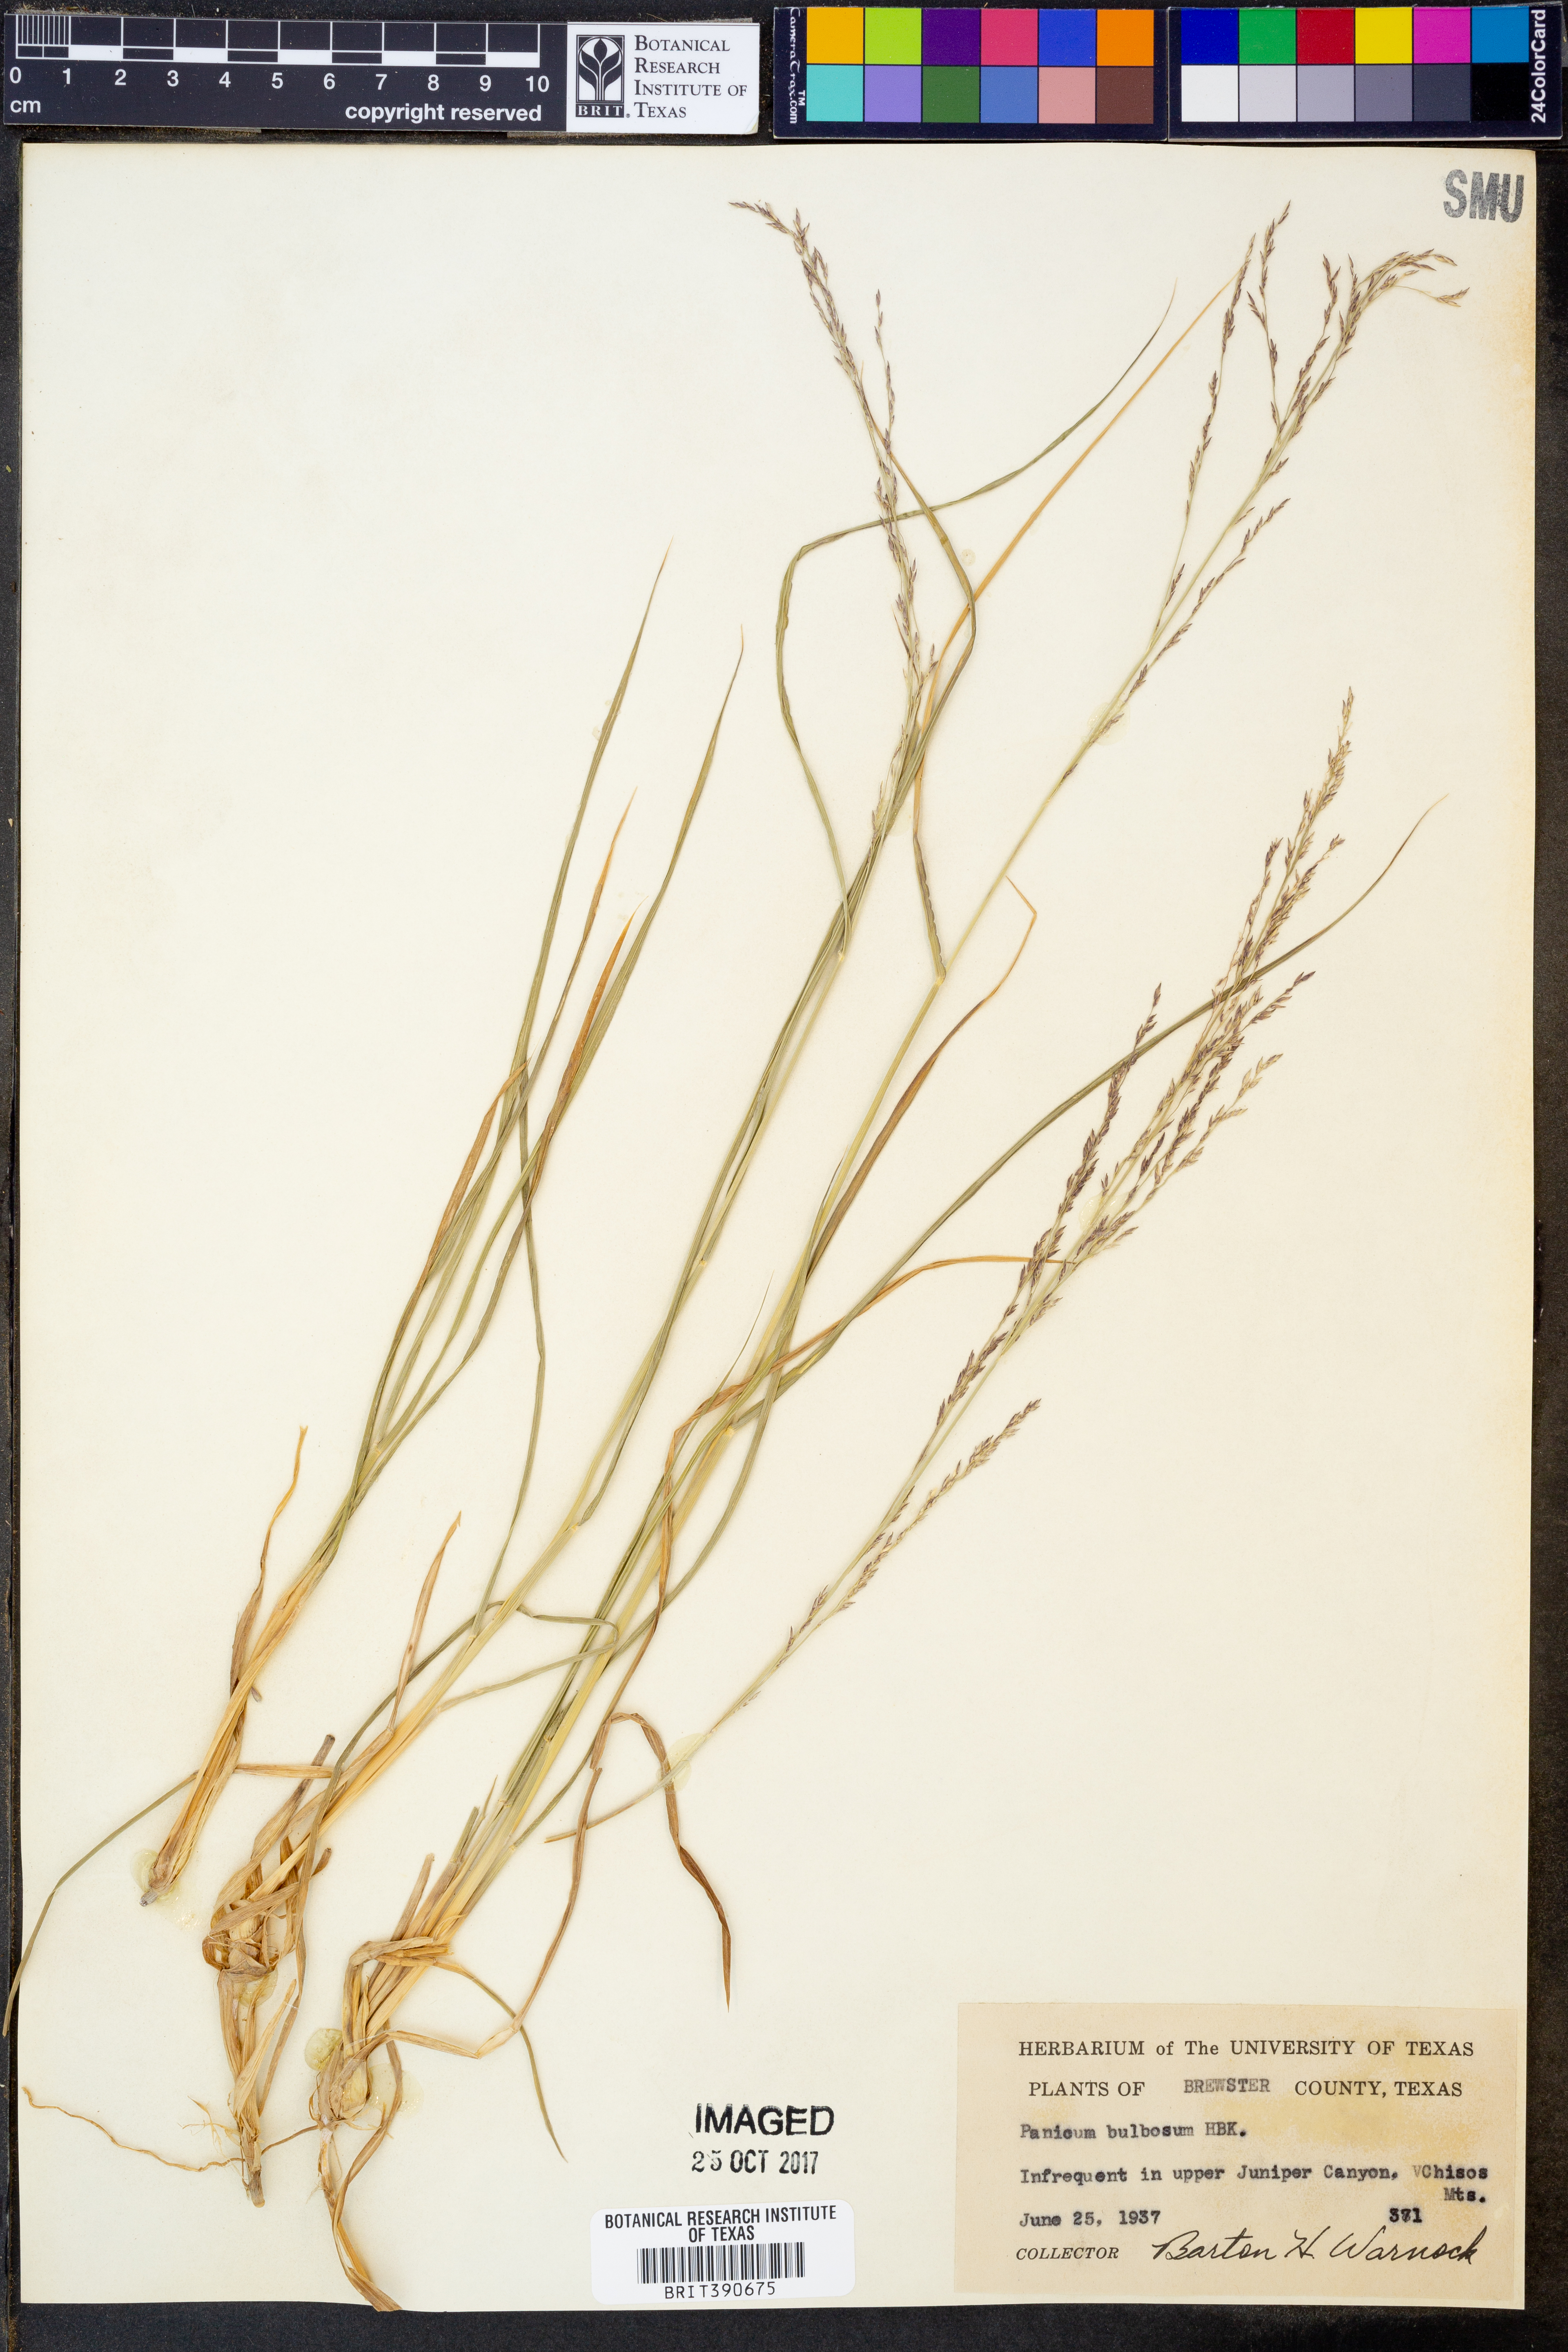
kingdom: Plantae
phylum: Tracheophyta
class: Liliopsida
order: Poales
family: Poaceae
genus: Zuloagaea
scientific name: Zuloagaea bulbosa
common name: Canyon panic grass
